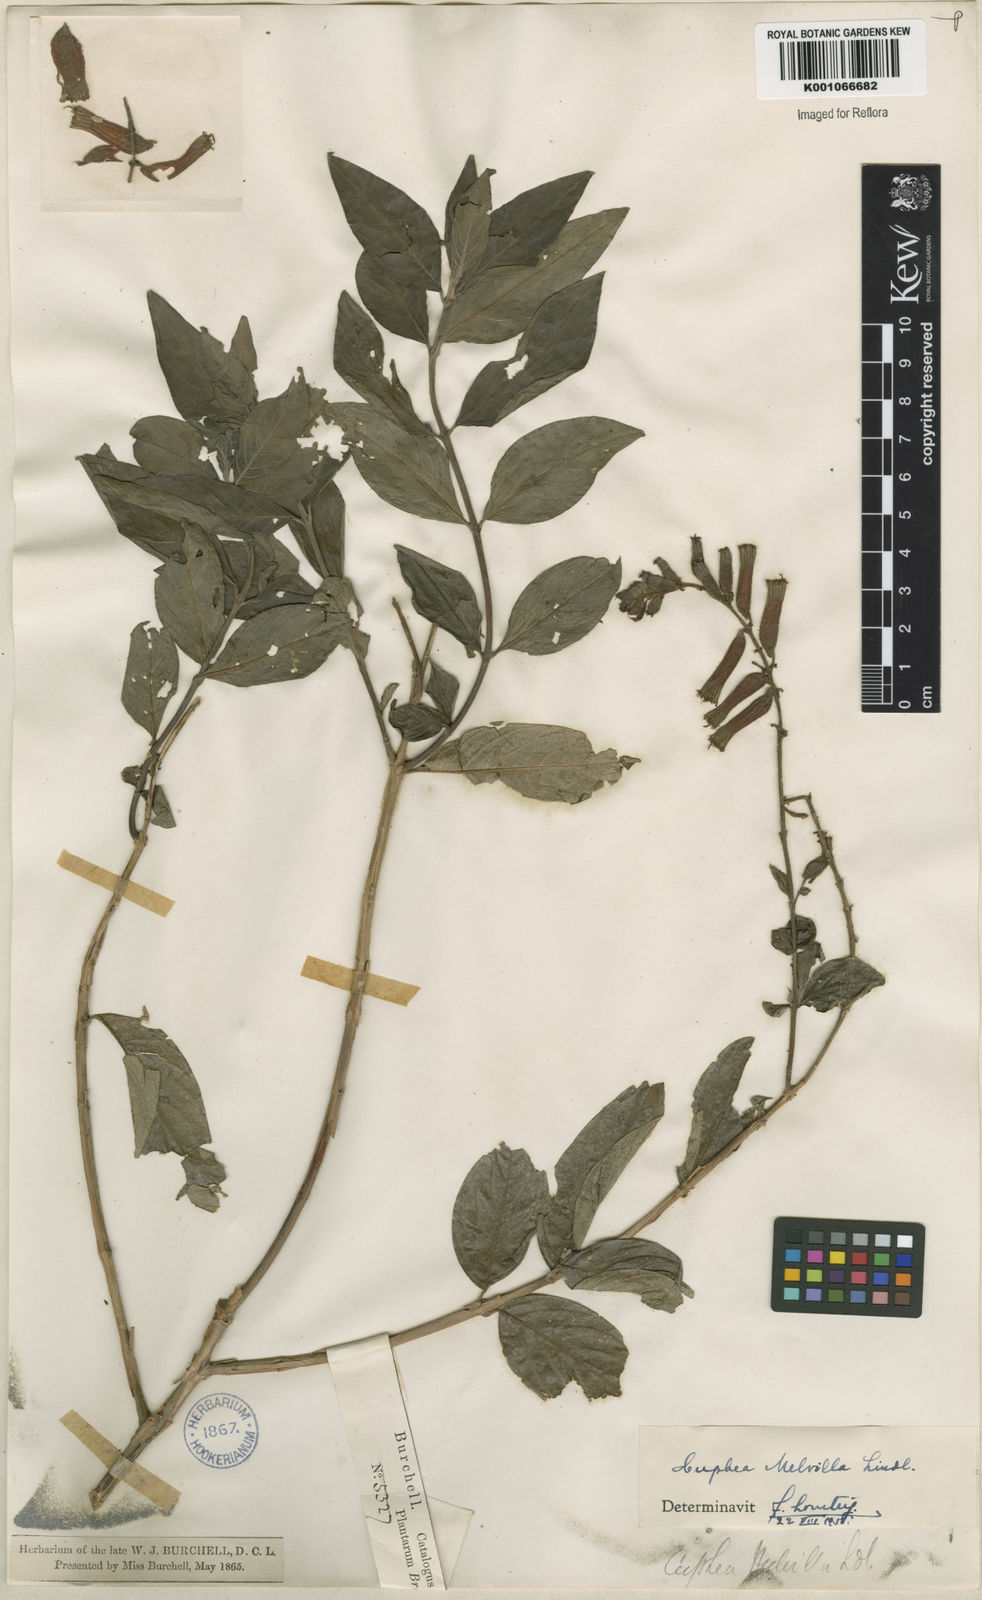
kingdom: Plantae
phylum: Tracheophyta
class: Magnoliopsida
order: Myrtales
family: Lythraceae
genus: Cuphea
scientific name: Cuphea melvilla
